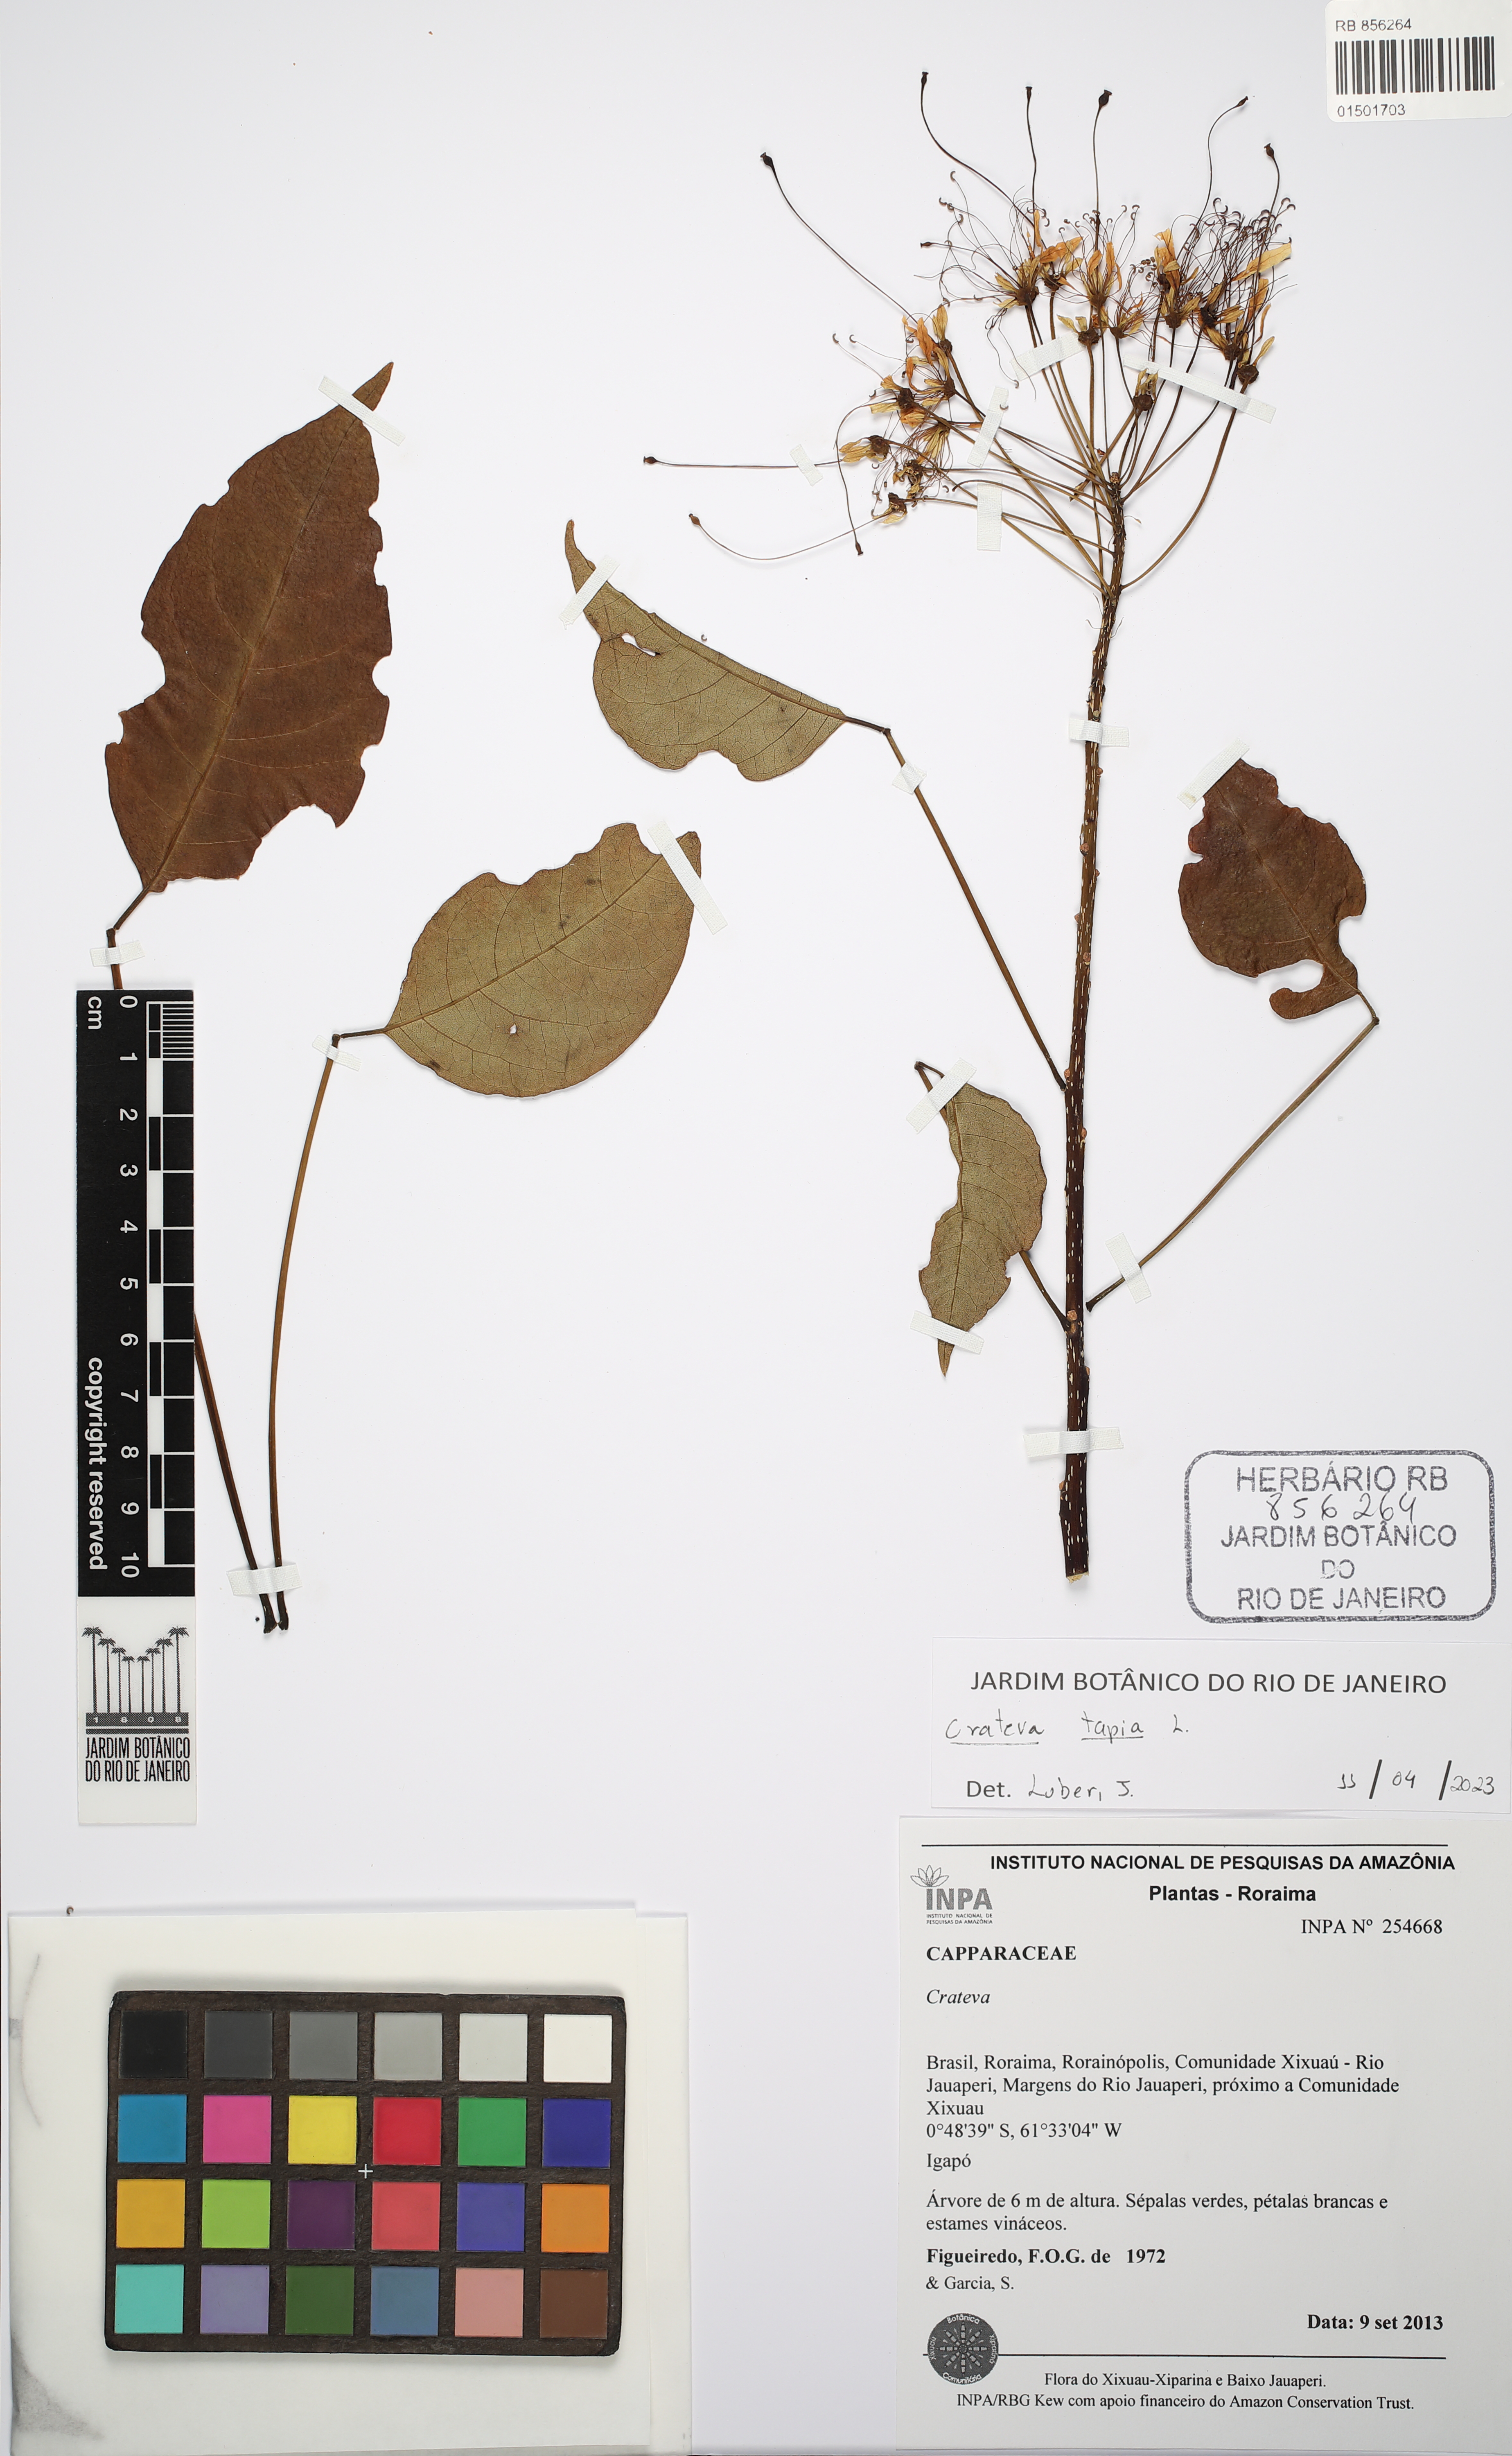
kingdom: Plantae
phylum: Tracheophyta
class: Magnoliopsida
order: Brassicales
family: Capparaceae
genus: Crateva
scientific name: Crateva tapia
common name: Garlic-pear
